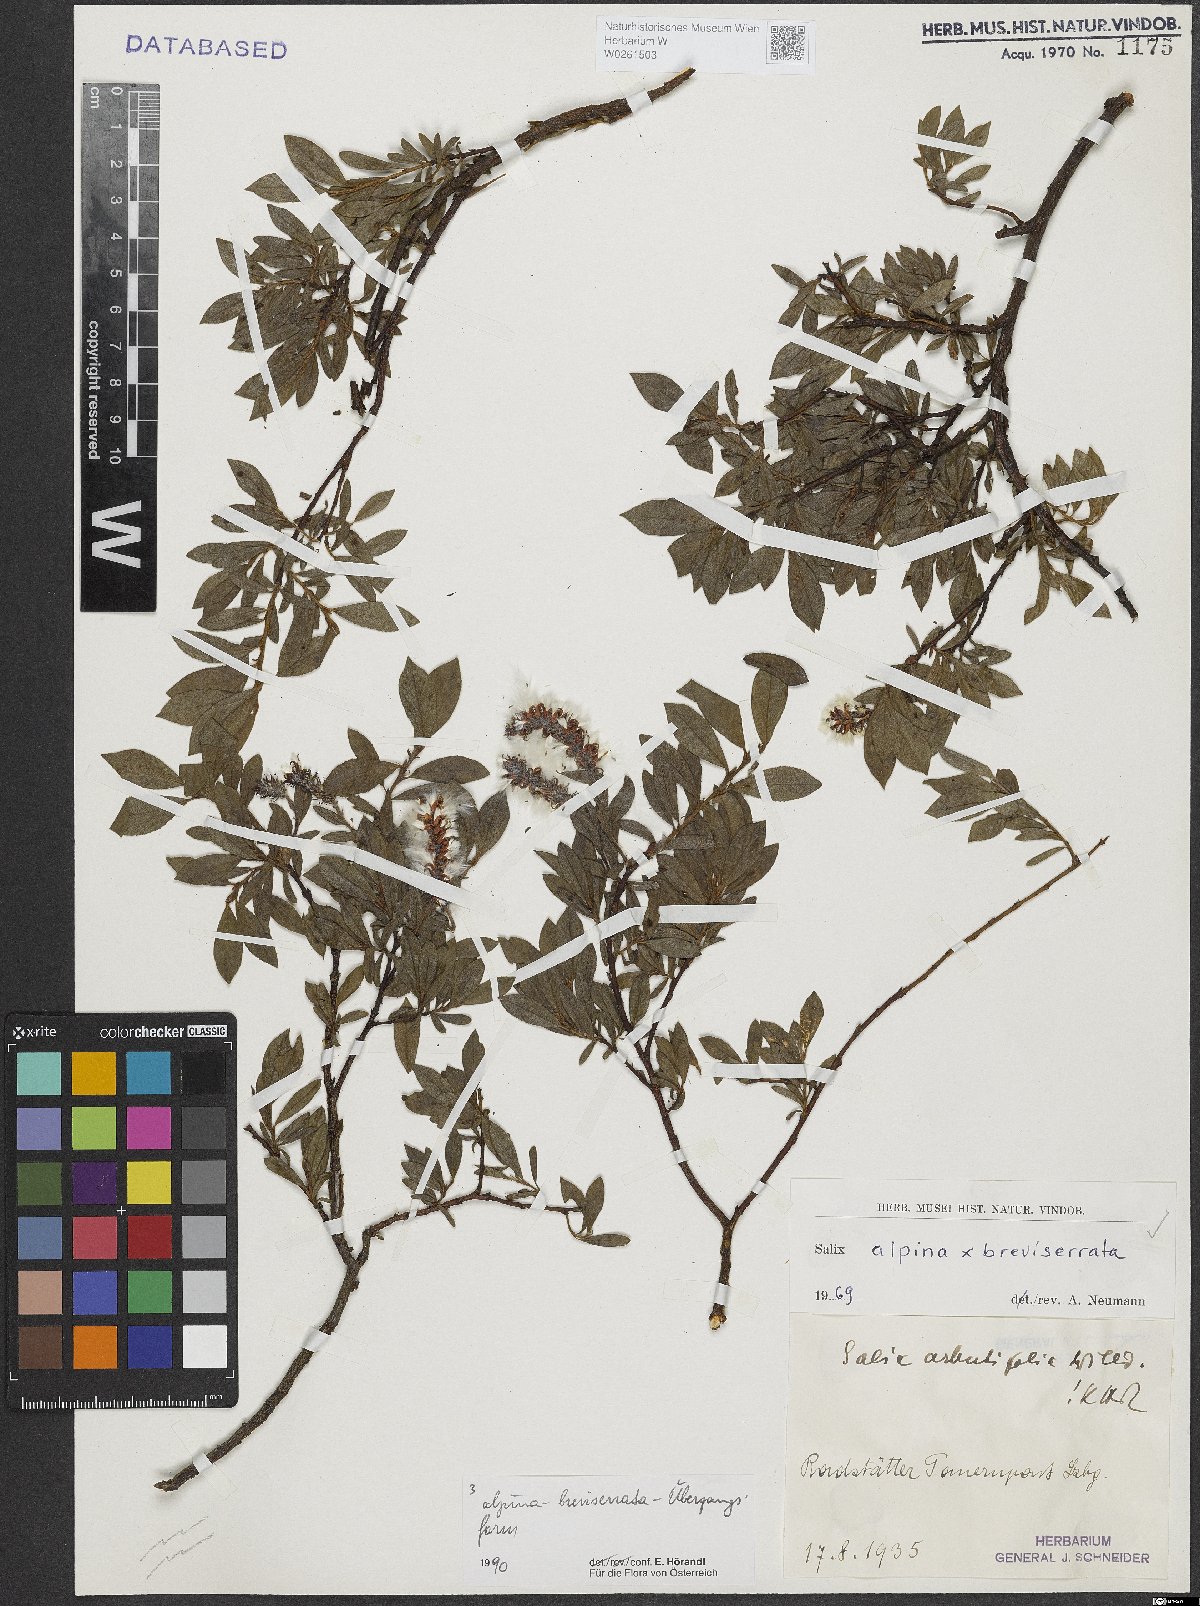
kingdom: Plantae
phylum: Tracheophyta
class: Magnoliopsida
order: Malpighiales
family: Salicaceae
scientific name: Salicaceae
